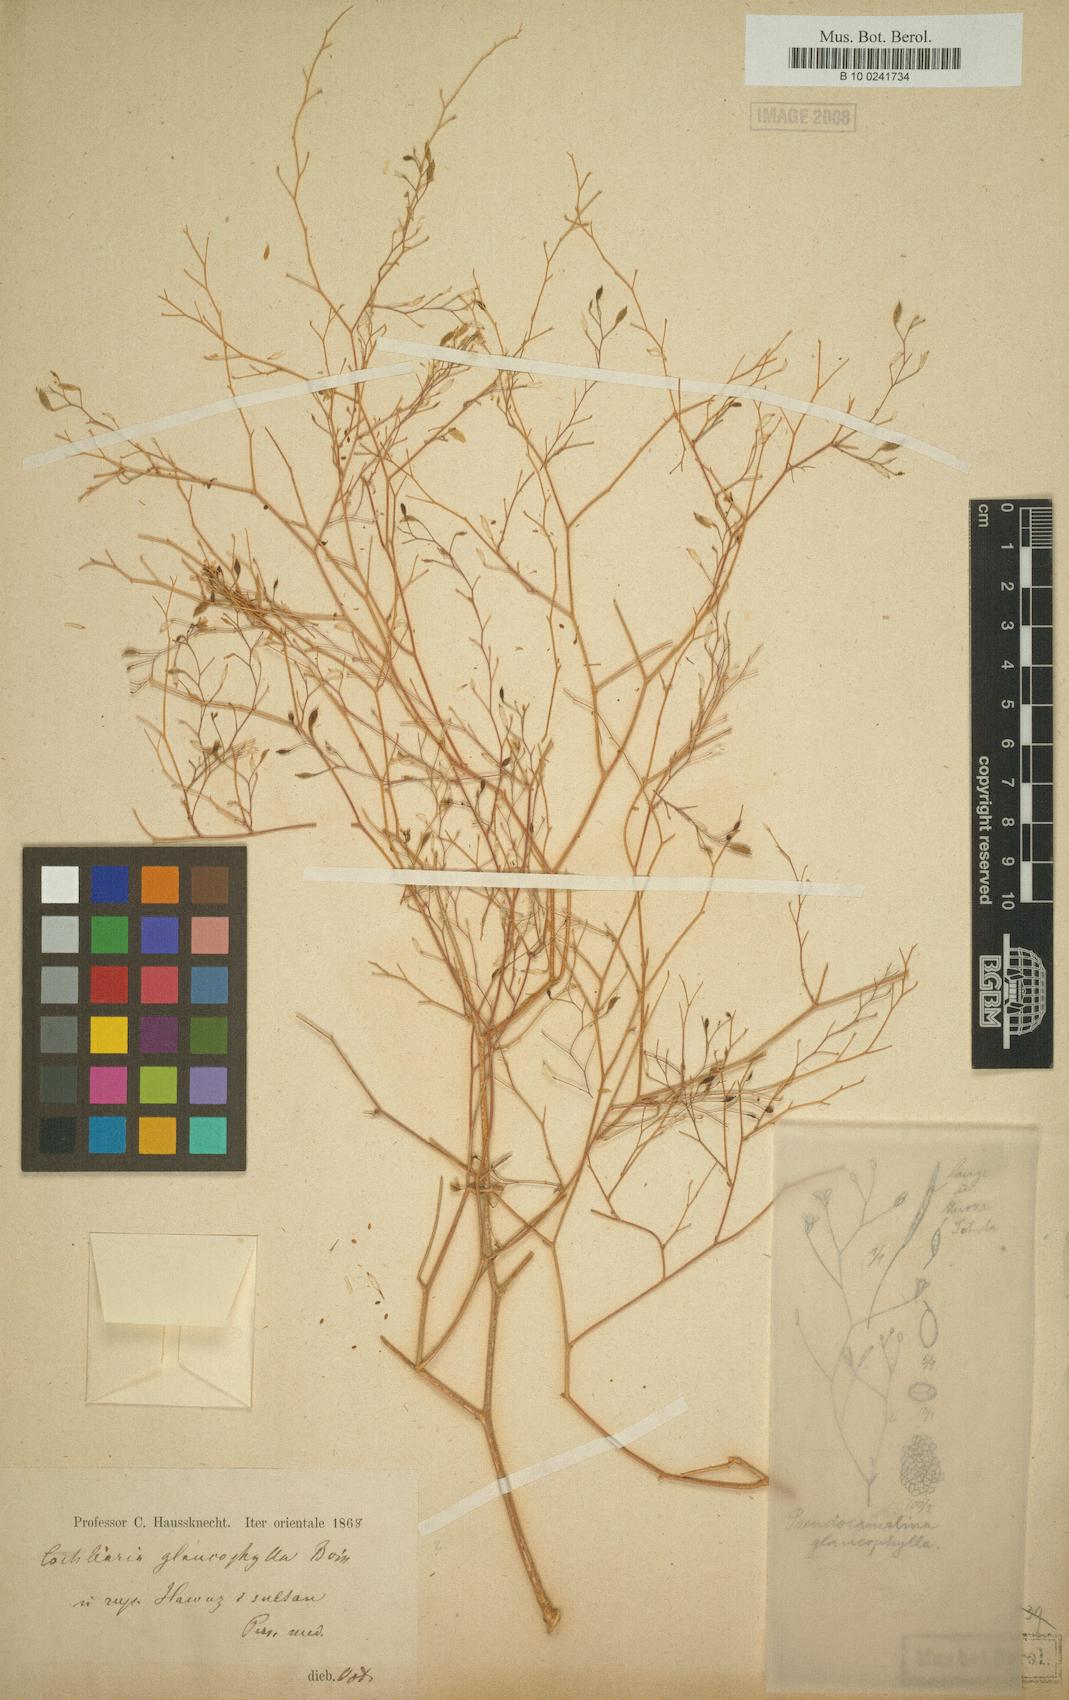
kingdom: Plantae
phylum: Tracheophyta
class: Magnoliopsida
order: Brassicales
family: Brassicaceae
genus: Pseudocamelina
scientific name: Pseudocamelina glaucophylla
